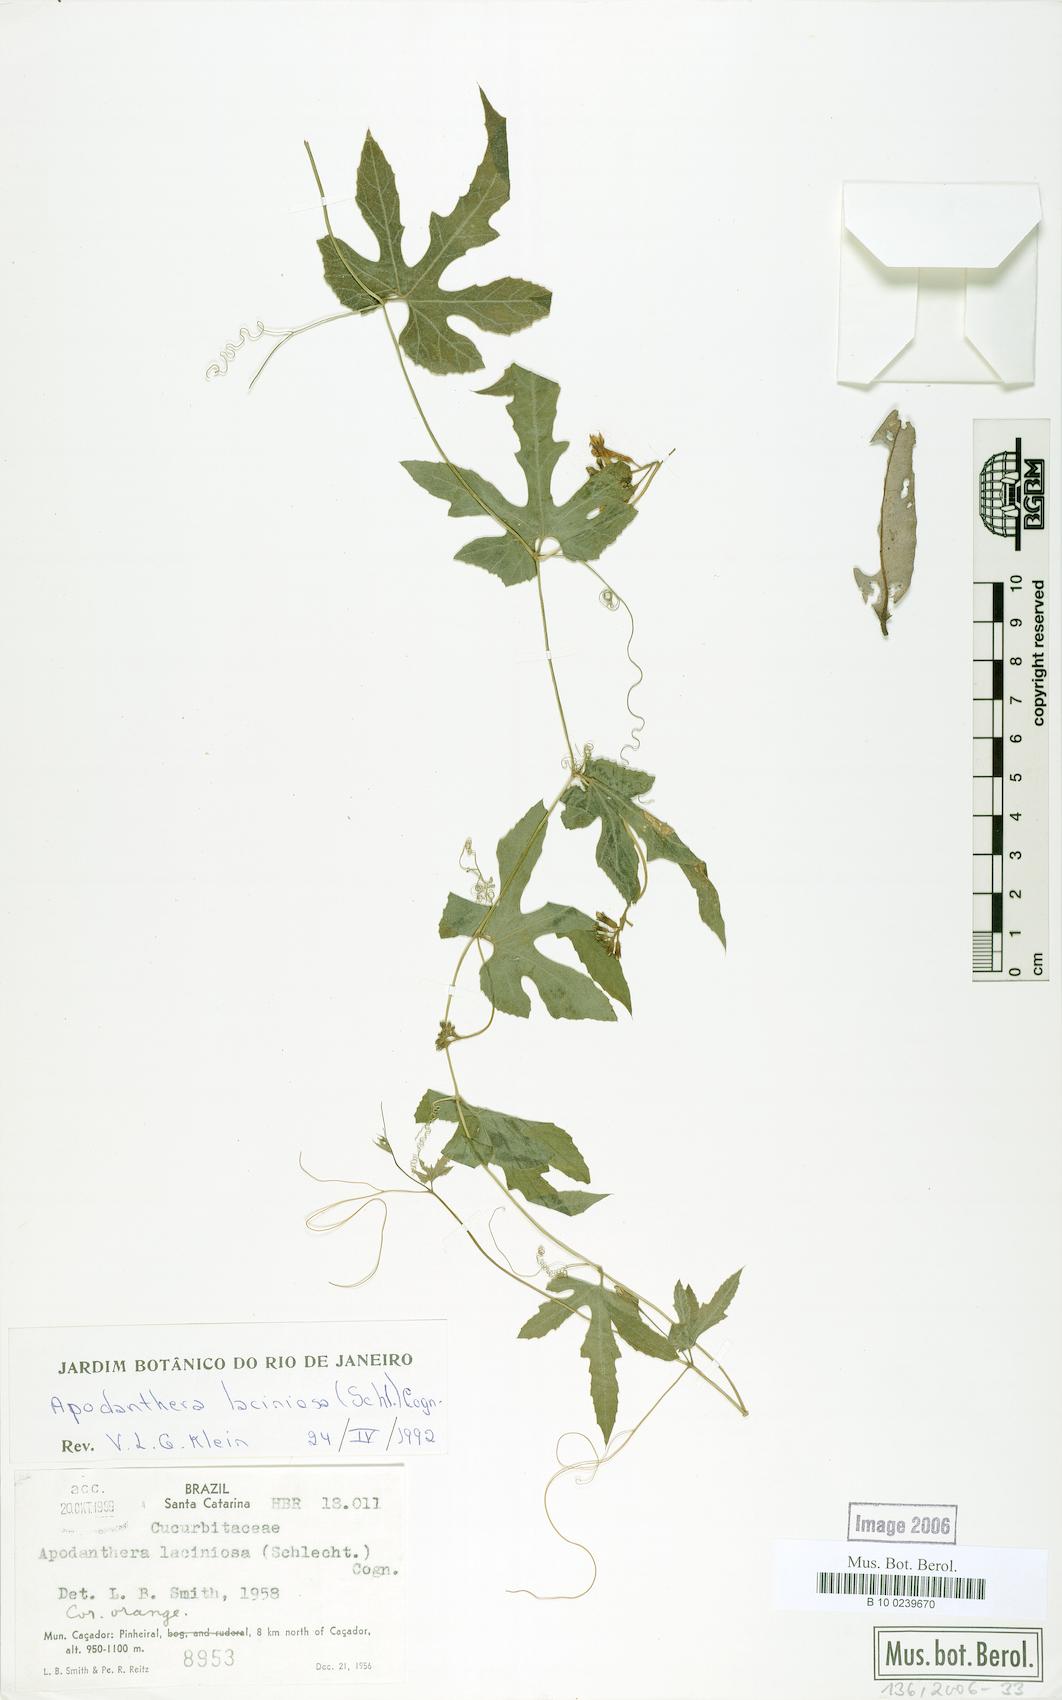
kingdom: Plantae
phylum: Tracheophyta
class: Magnoliopsida
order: Cucurbitales
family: Cucurbitaceae
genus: Apodanthera
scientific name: Apodanthera laciniosa
